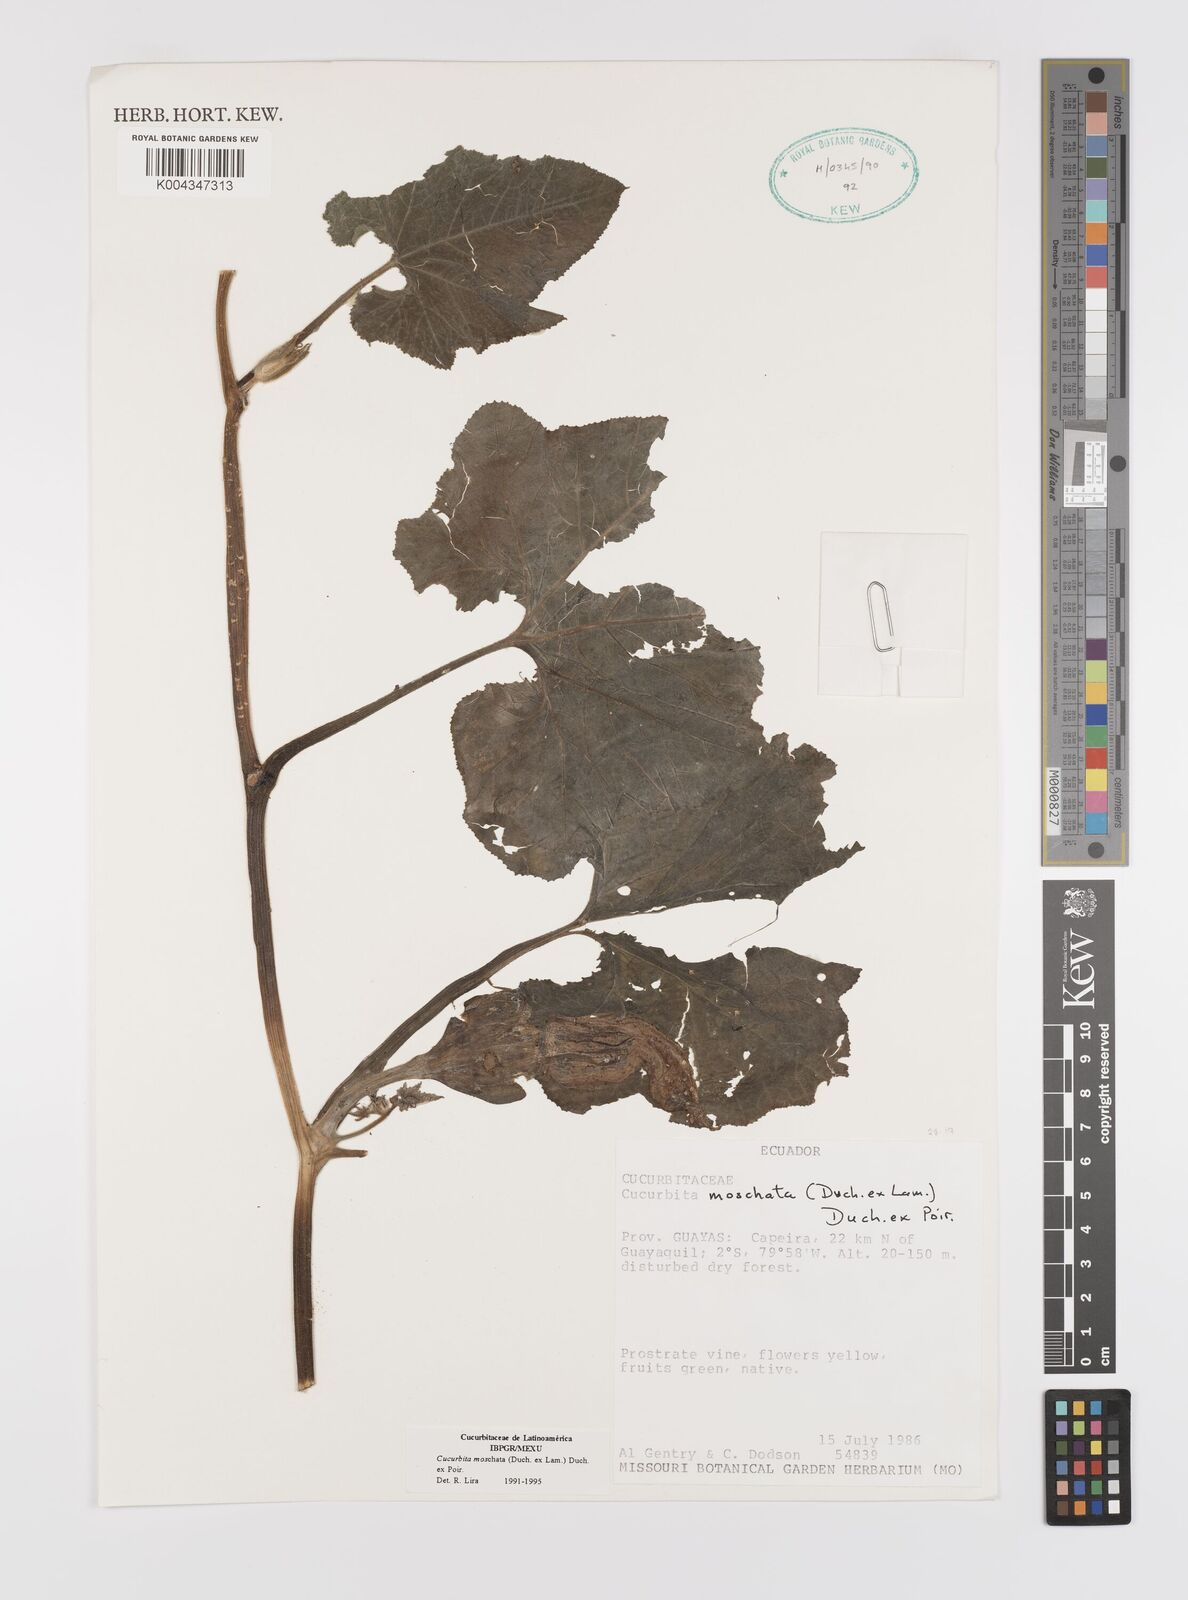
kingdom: Plantae
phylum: Tracheophyta
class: Magnoliopsida
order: Cucurbitales
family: Cucurbitaceae
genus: Cucurbita
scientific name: Cucurbita moschata
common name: Squash / pumpkin
